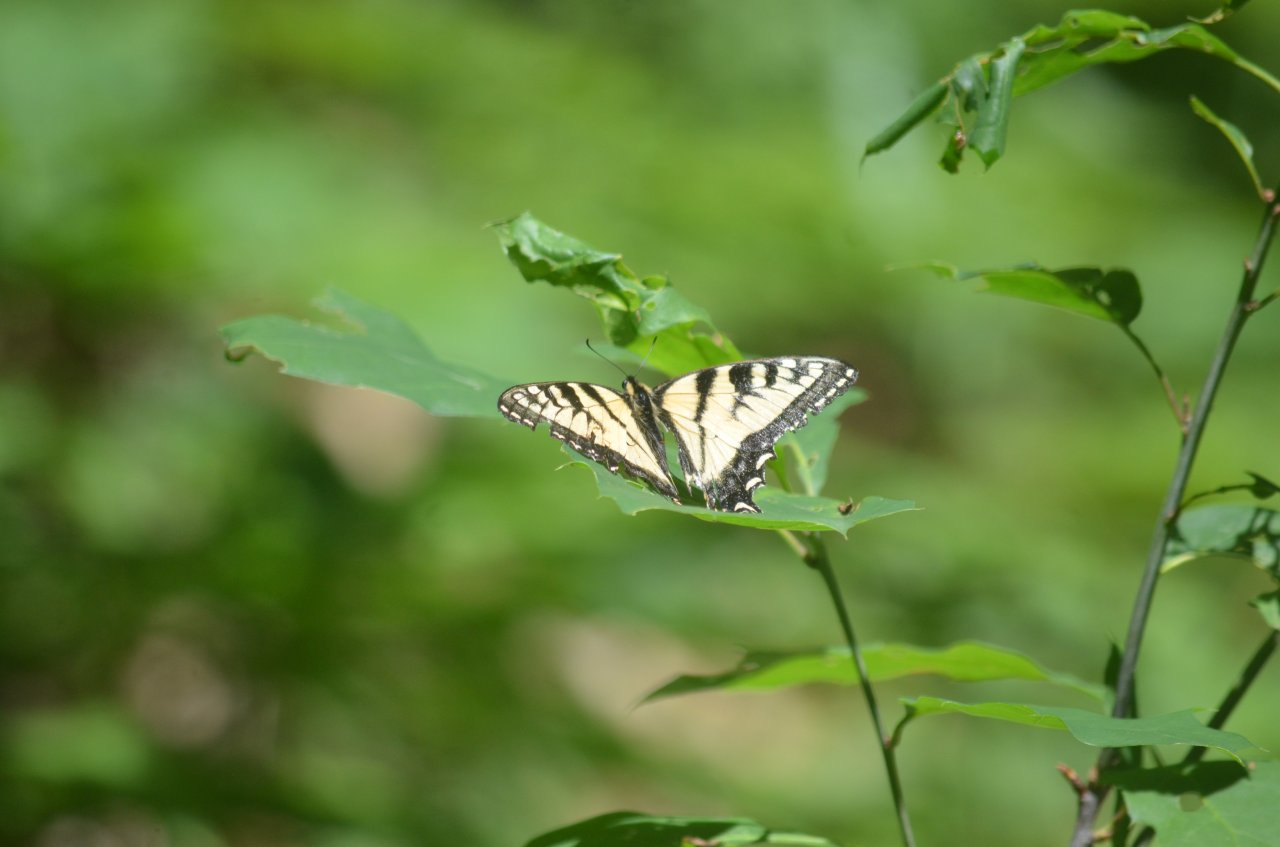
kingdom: Animalia
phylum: Arthropoda
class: Insecta
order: Lepidoptera
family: Papilionidae
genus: Pterourus
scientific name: Pterourus canadensis
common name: Canadian Tiger Swallowtail
